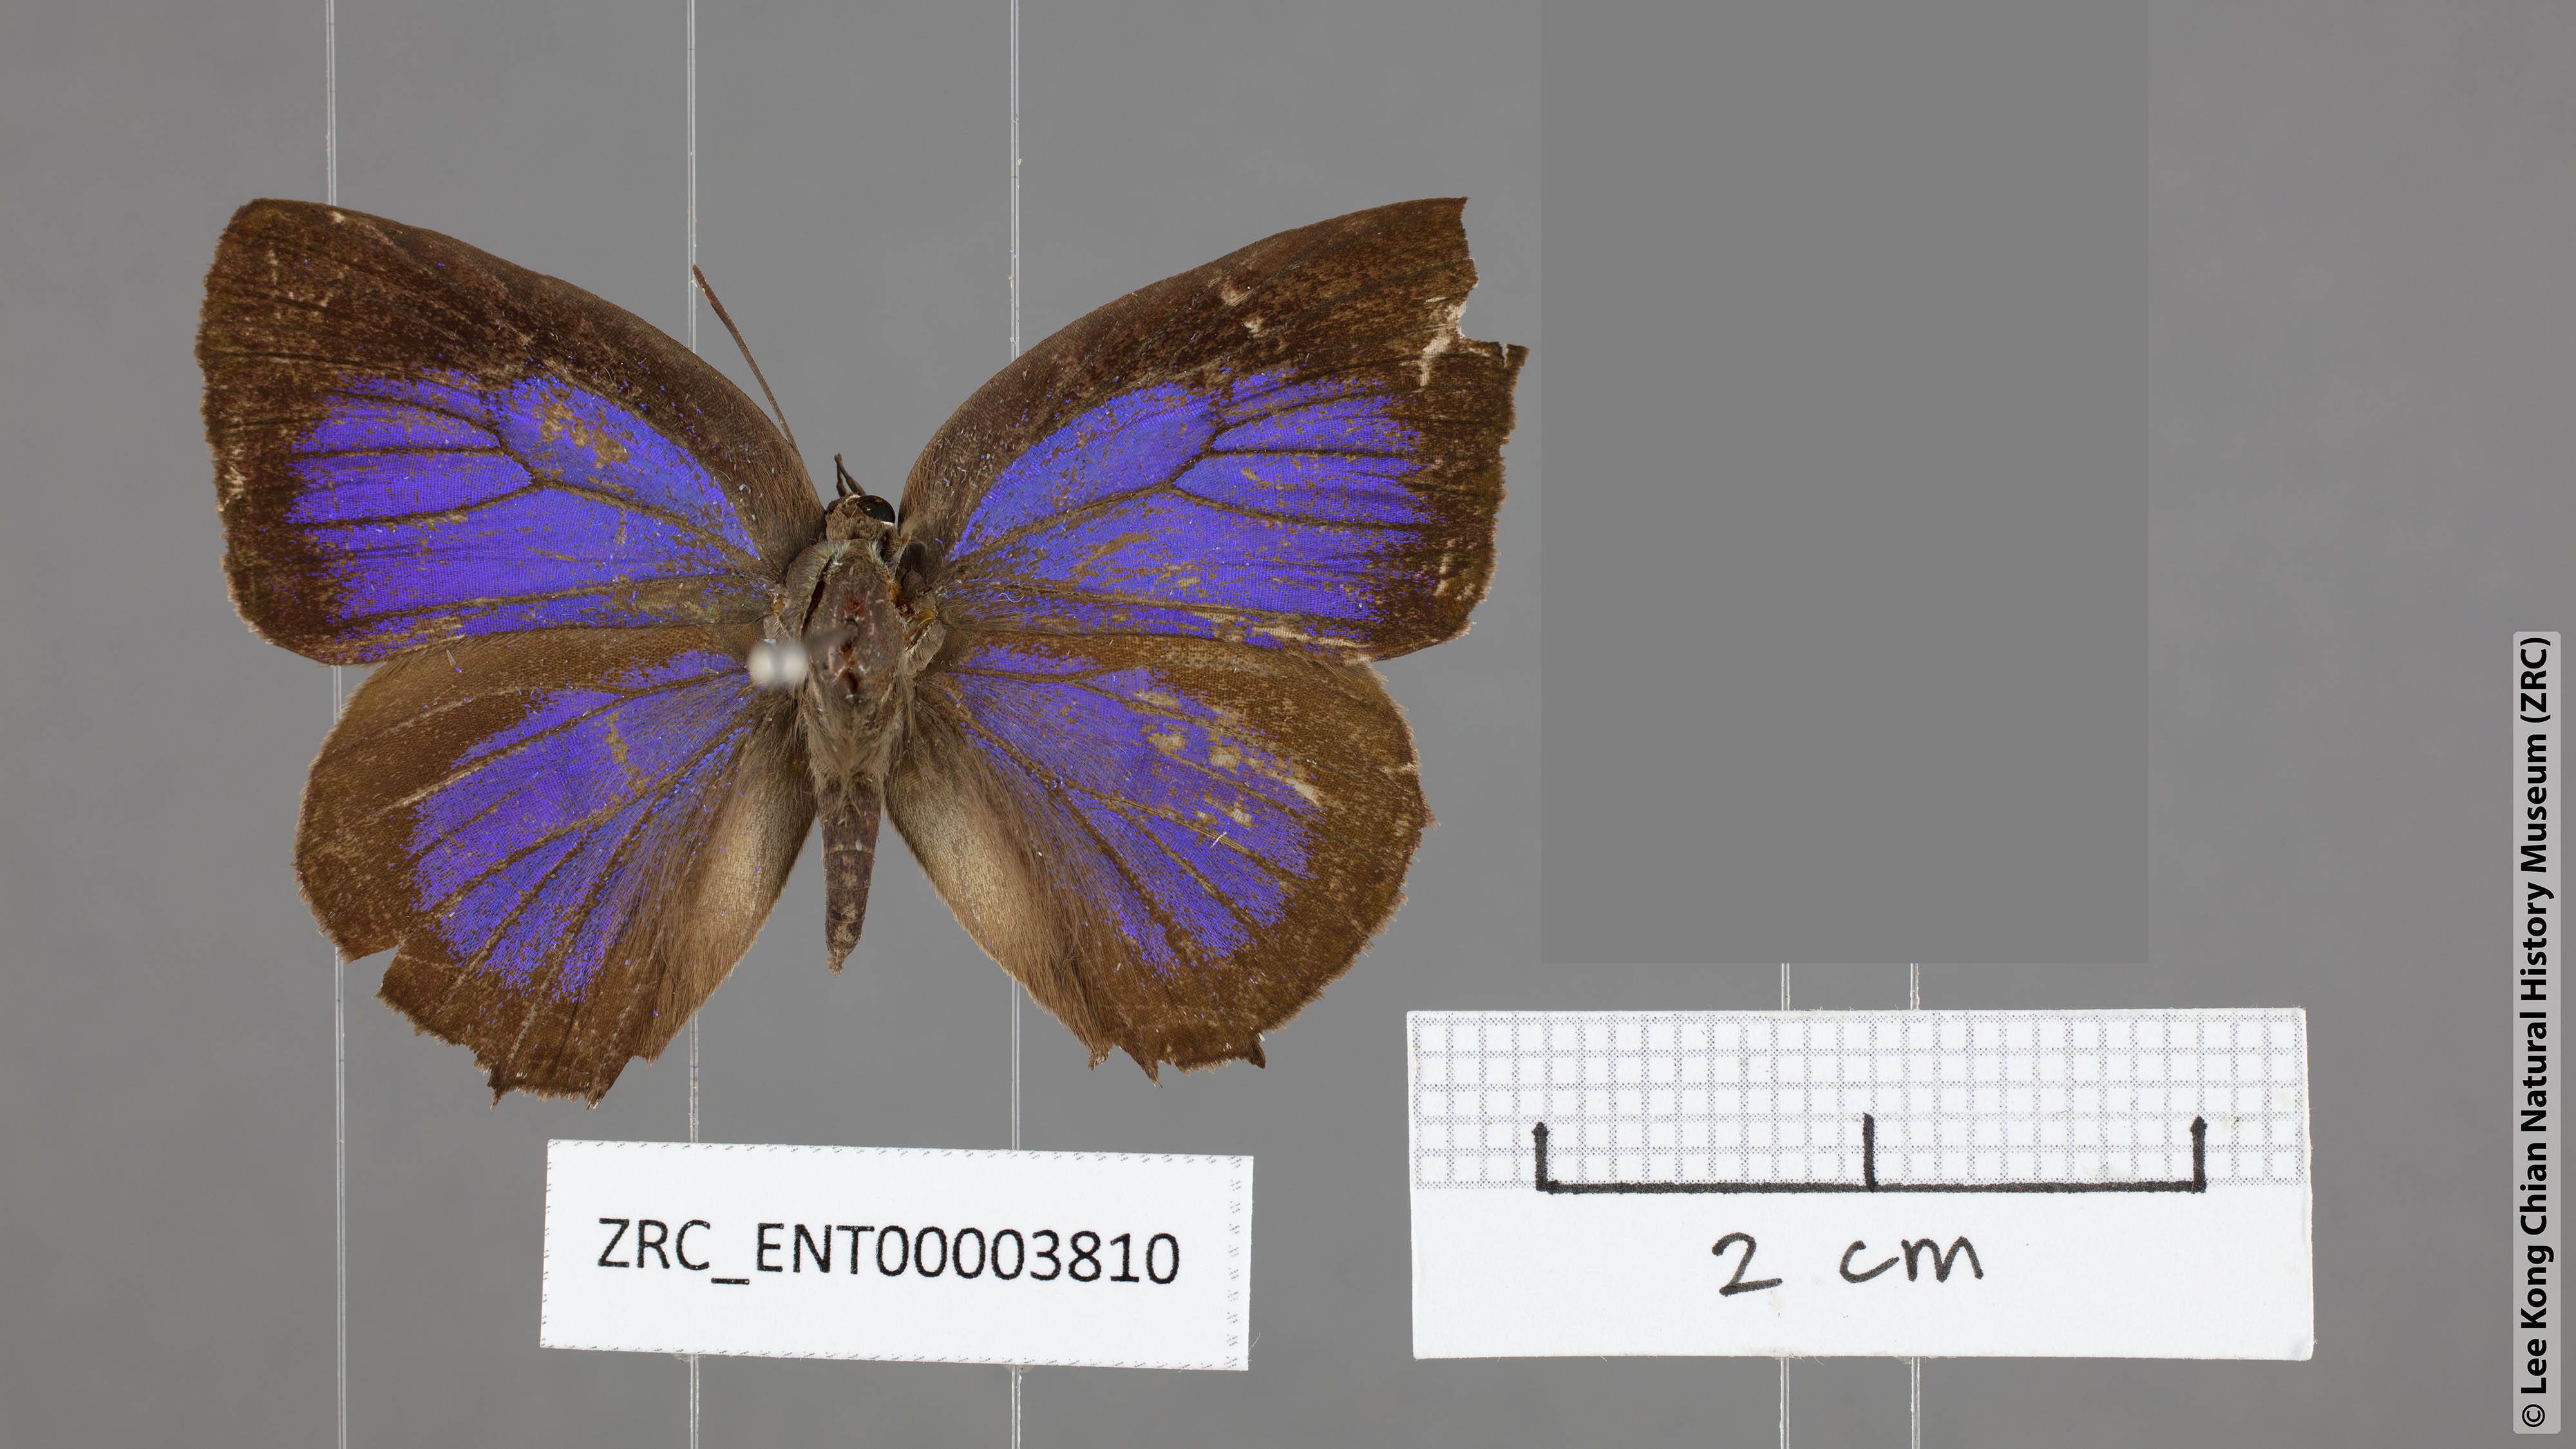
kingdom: Animalia
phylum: Arthropoda
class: Insecta
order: Lepidoptera
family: Lycaenidae
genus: Arhopala
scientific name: Arhopala
